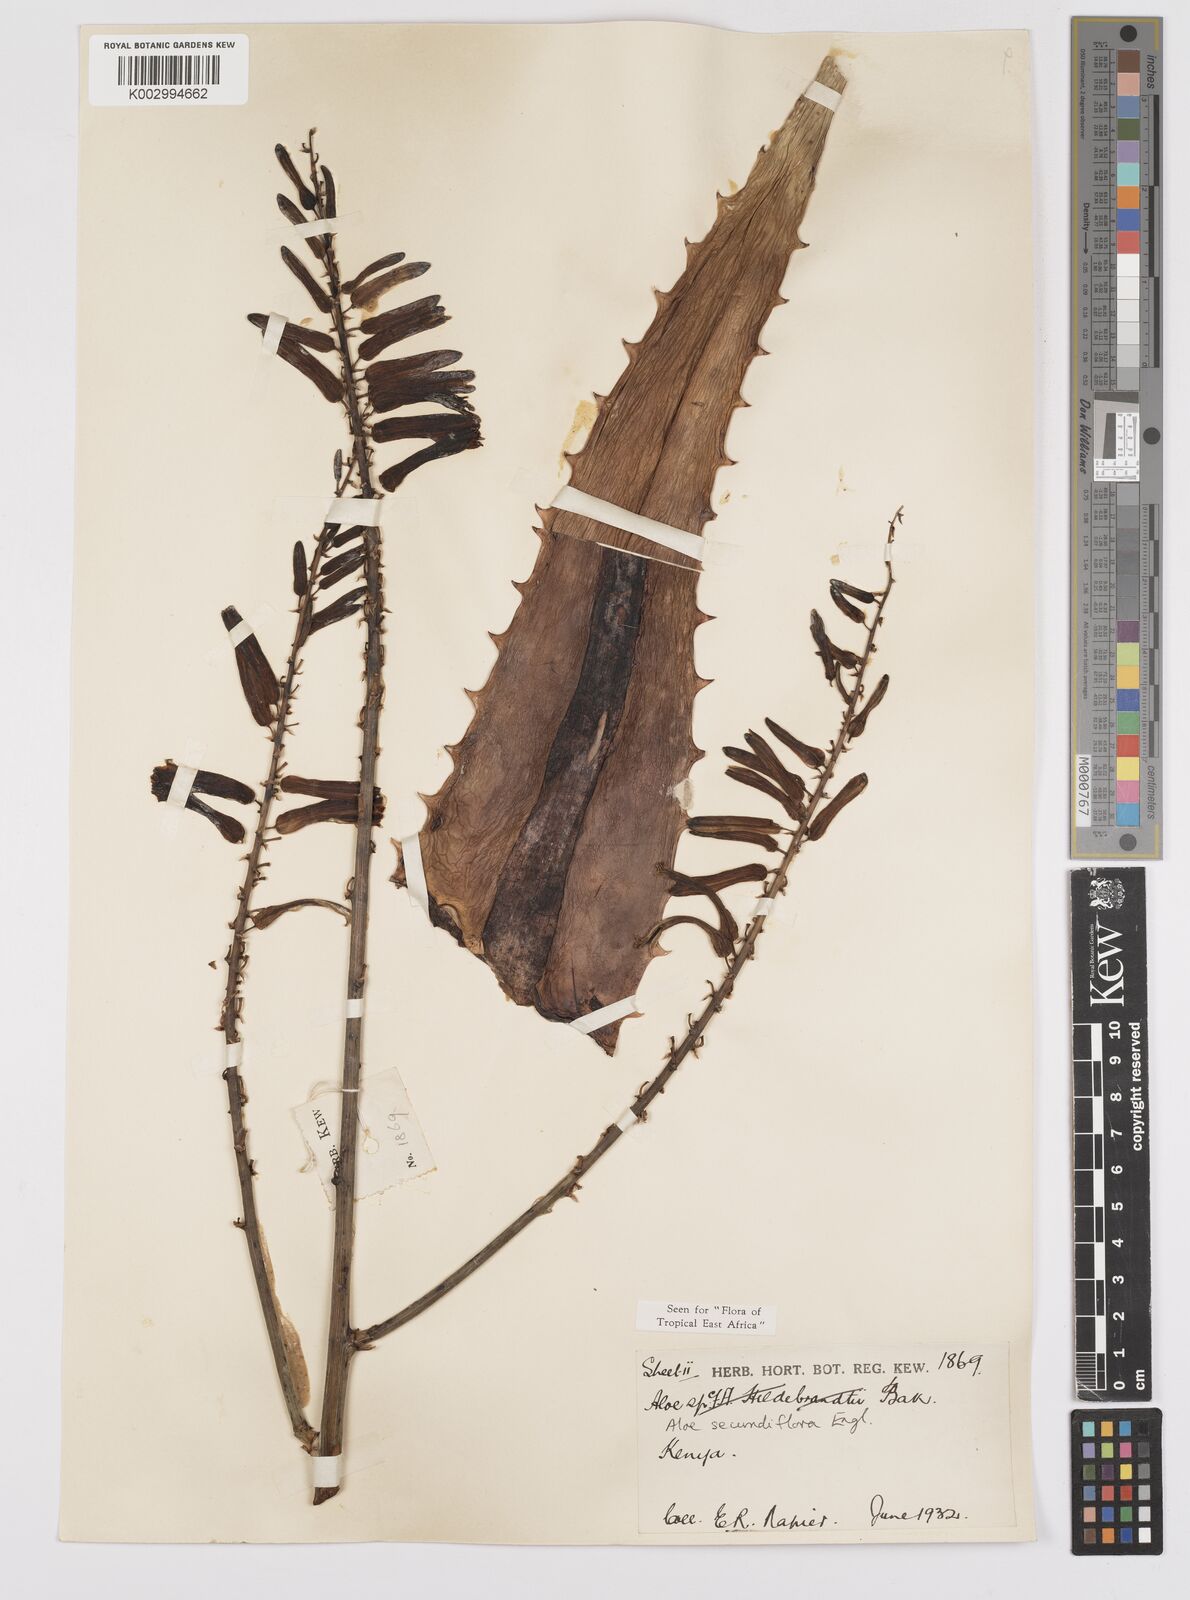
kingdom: Plantae
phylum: Tracheophyta
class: Liliopsida
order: Asparagales
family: Asphodelaceae
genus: Aloe
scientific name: Aloe secundiflora
